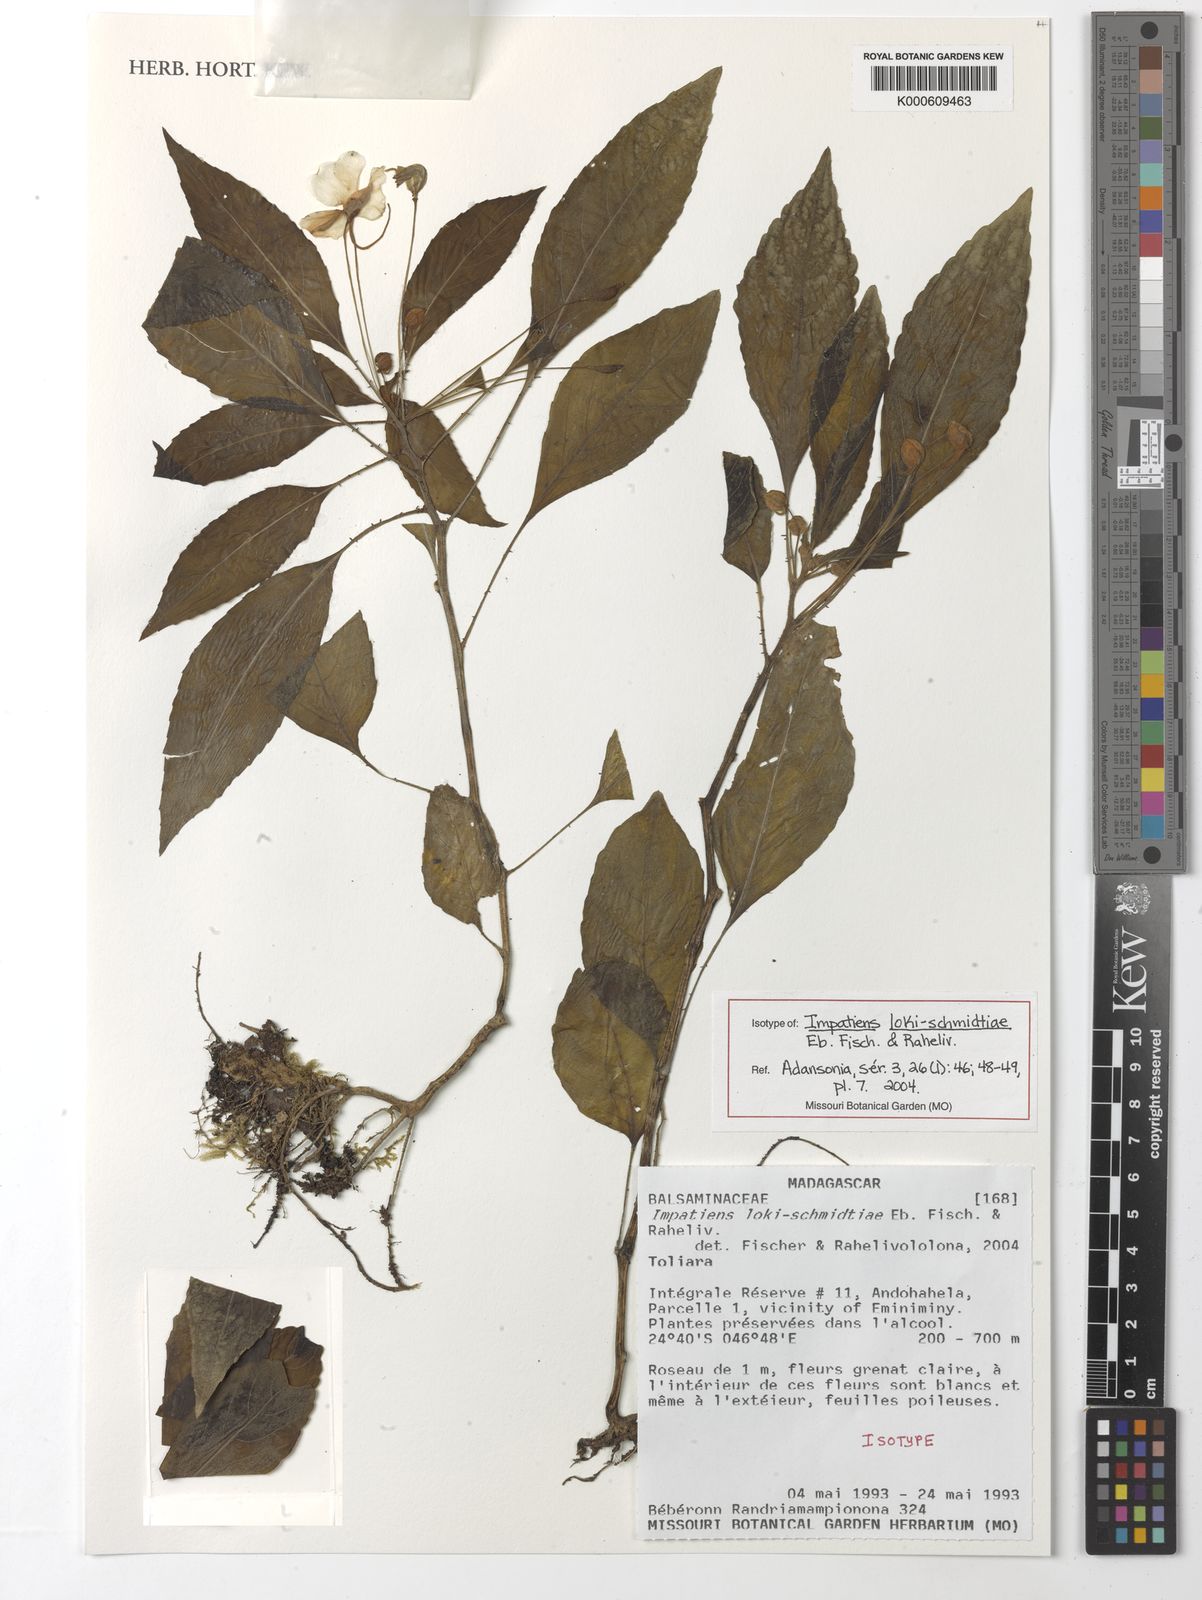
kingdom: Plantae
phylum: Tracheophyta
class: Magnoliopsida
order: Ericales
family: Balsaminaceae
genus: Impatiens
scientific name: Impatiens loki-schmidtiae
